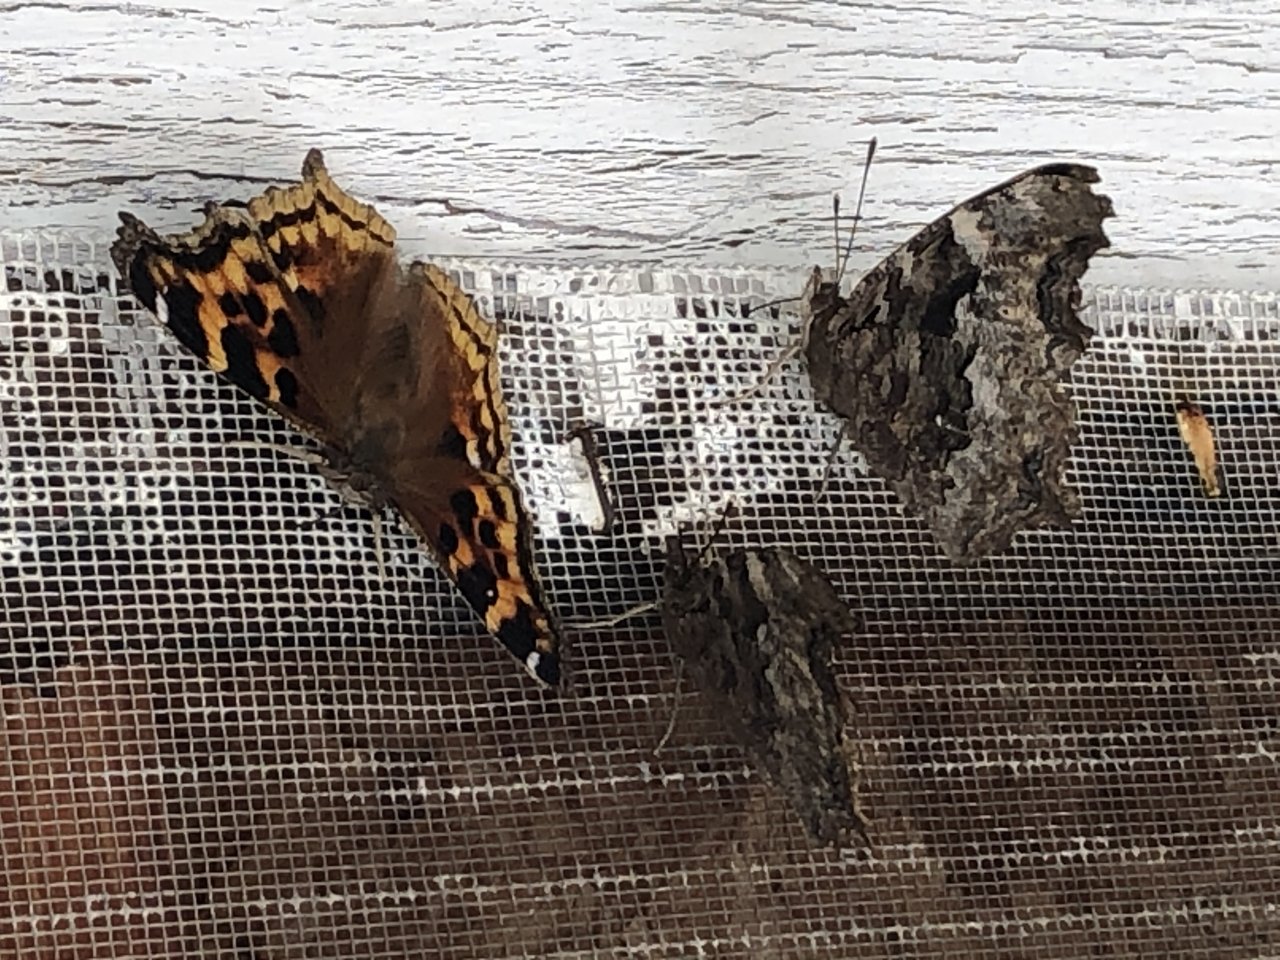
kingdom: Animalia
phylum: Arthropoda
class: Insecta
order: Lepidoptera
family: Nymphalidae
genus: Polygonia
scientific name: Polygonia vaualbum
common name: Compton Tortoiseshell
